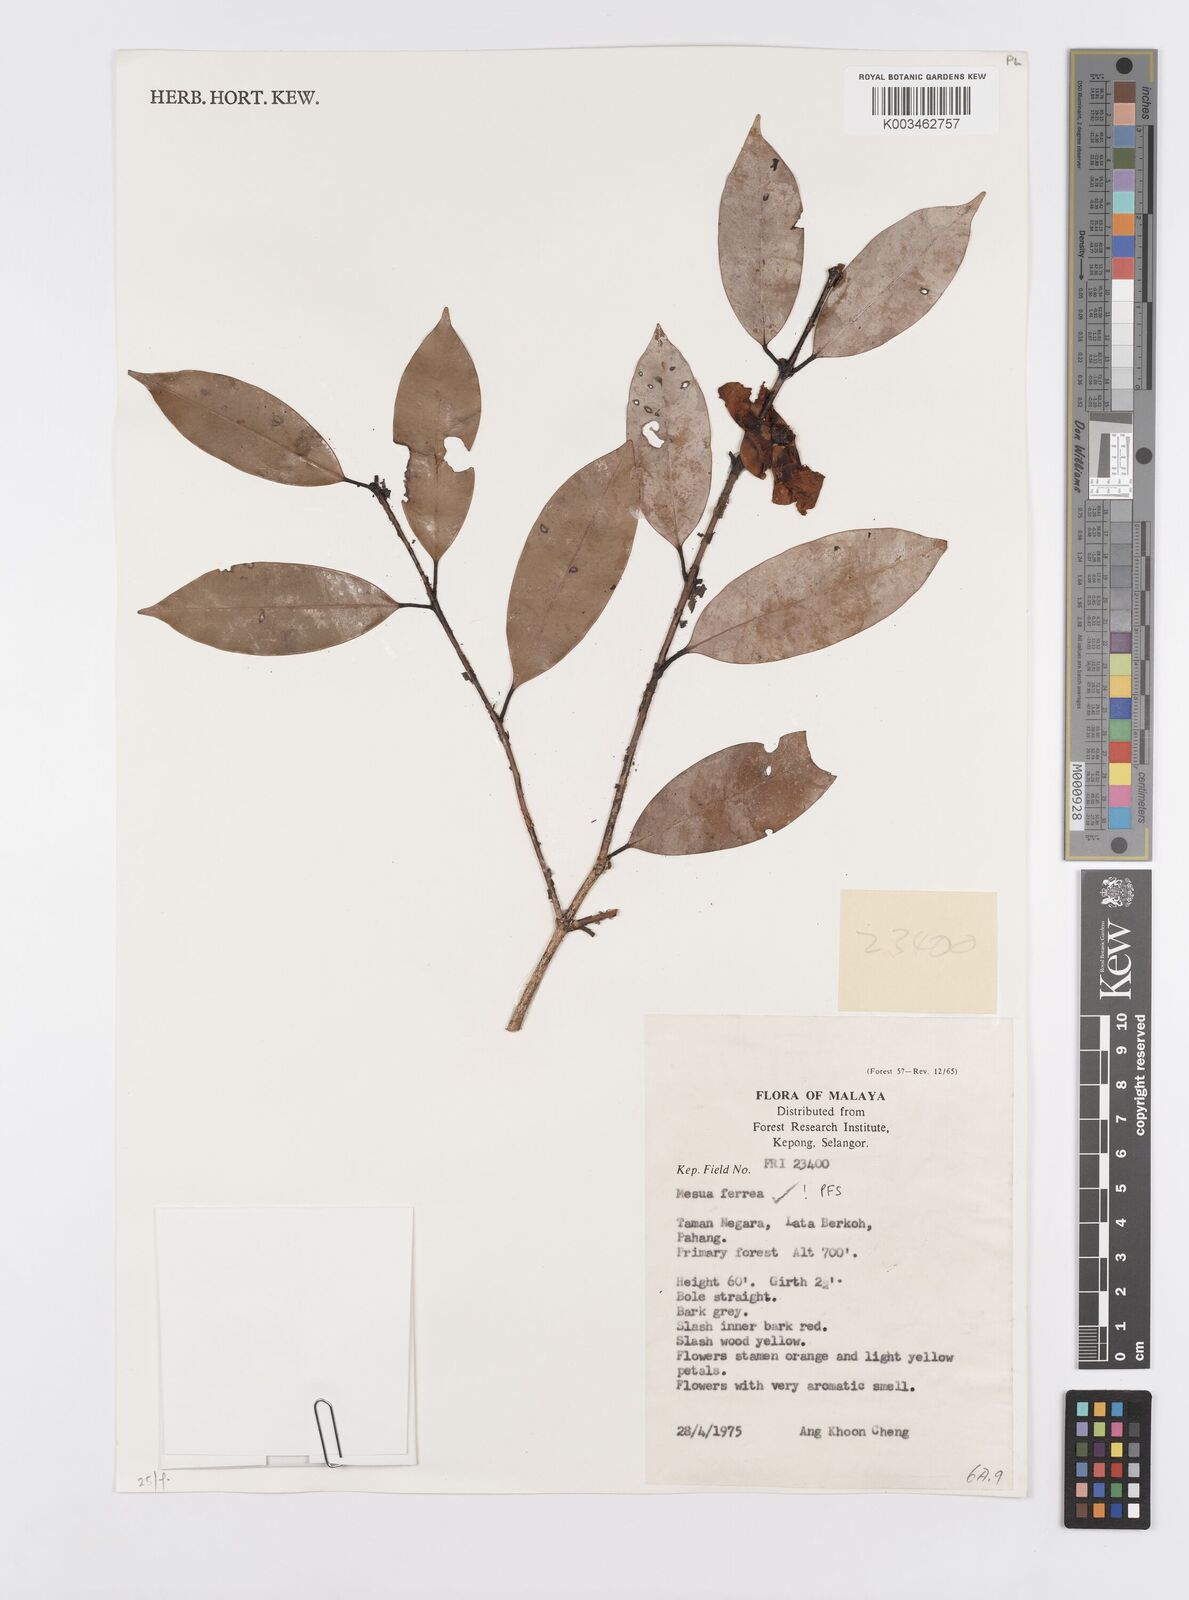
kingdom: Plantae
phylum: Tracheophyta
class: Magnoliopsida
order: Malpighiales
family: Calophyllaceae
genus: Mesua
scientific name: Mesua ferrea
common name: Mesua
